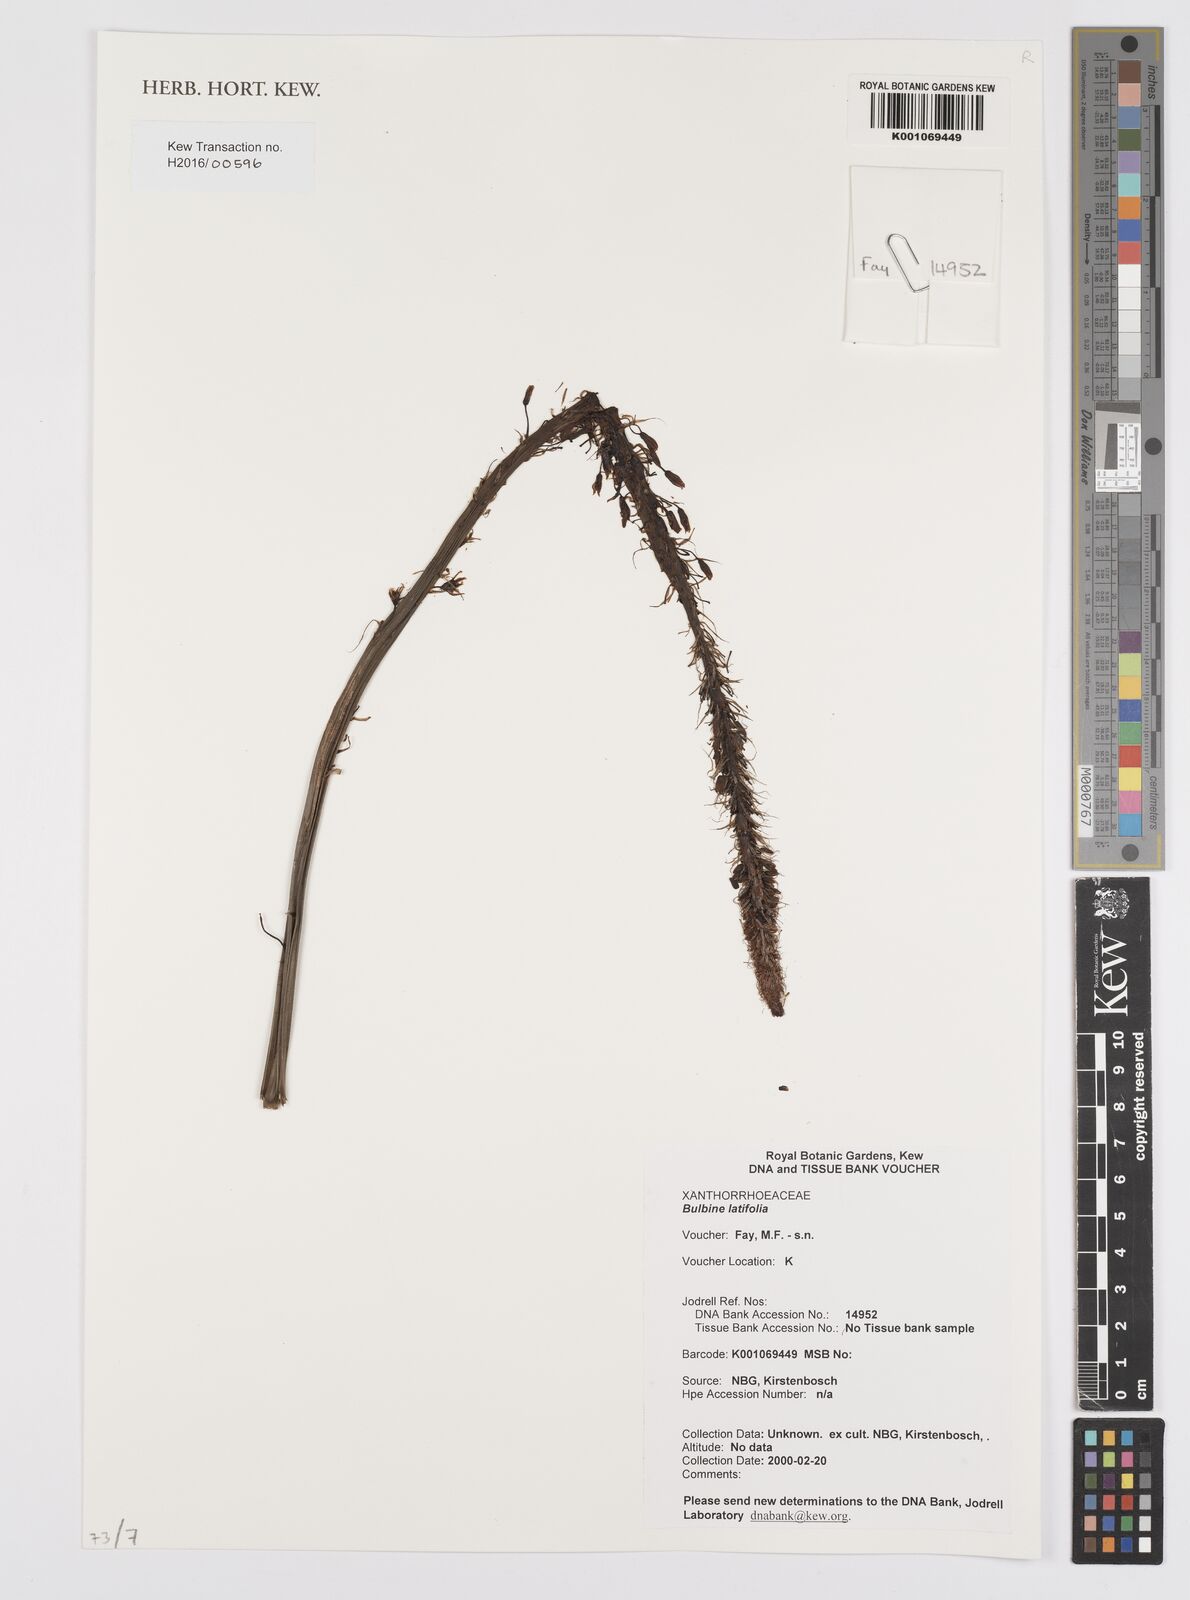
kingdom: Plantae
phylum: Tracheophyta
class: Liliopsida
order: Asparagales
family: Asphodelaceae
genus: Bulbine
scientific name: Bulbine latifolia
